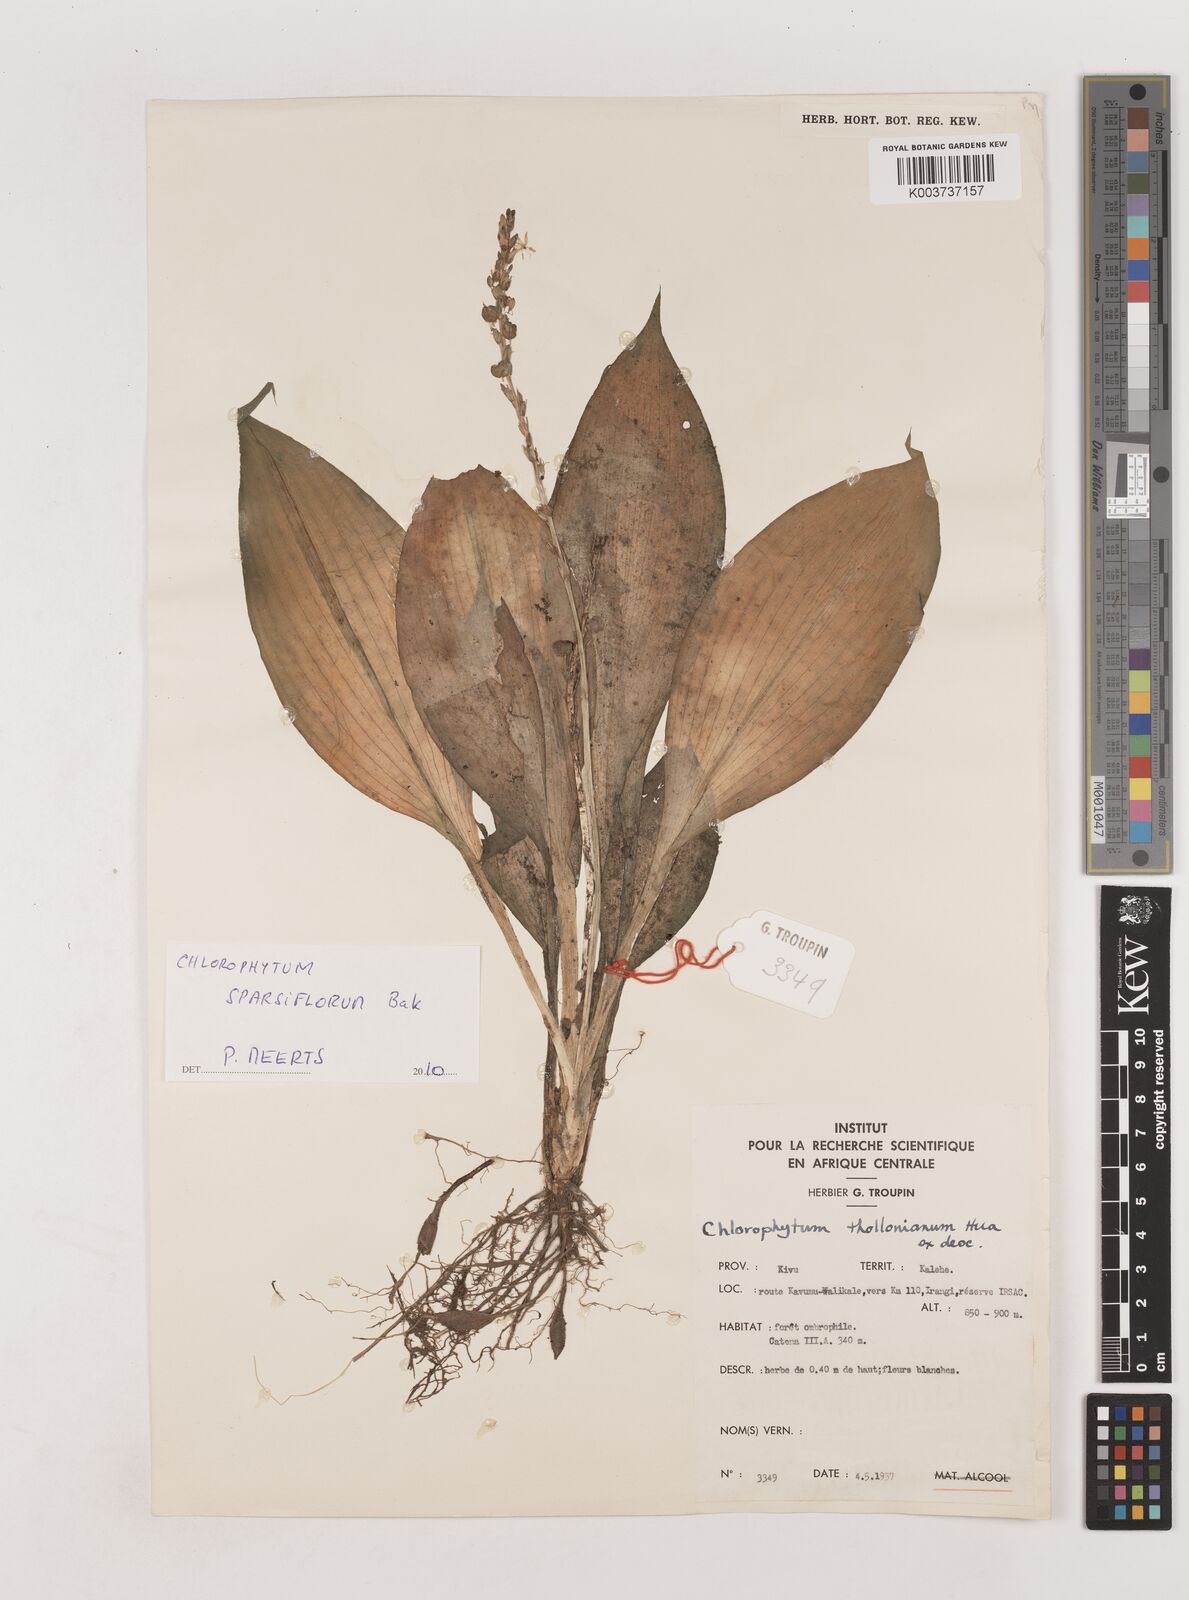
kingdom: Plantae
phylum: Tracheophyta
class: Liliopsida
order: Asparagales
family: Asparagaceae
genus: Chlorophytum
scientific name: Chlorophytum sparsiflorum
